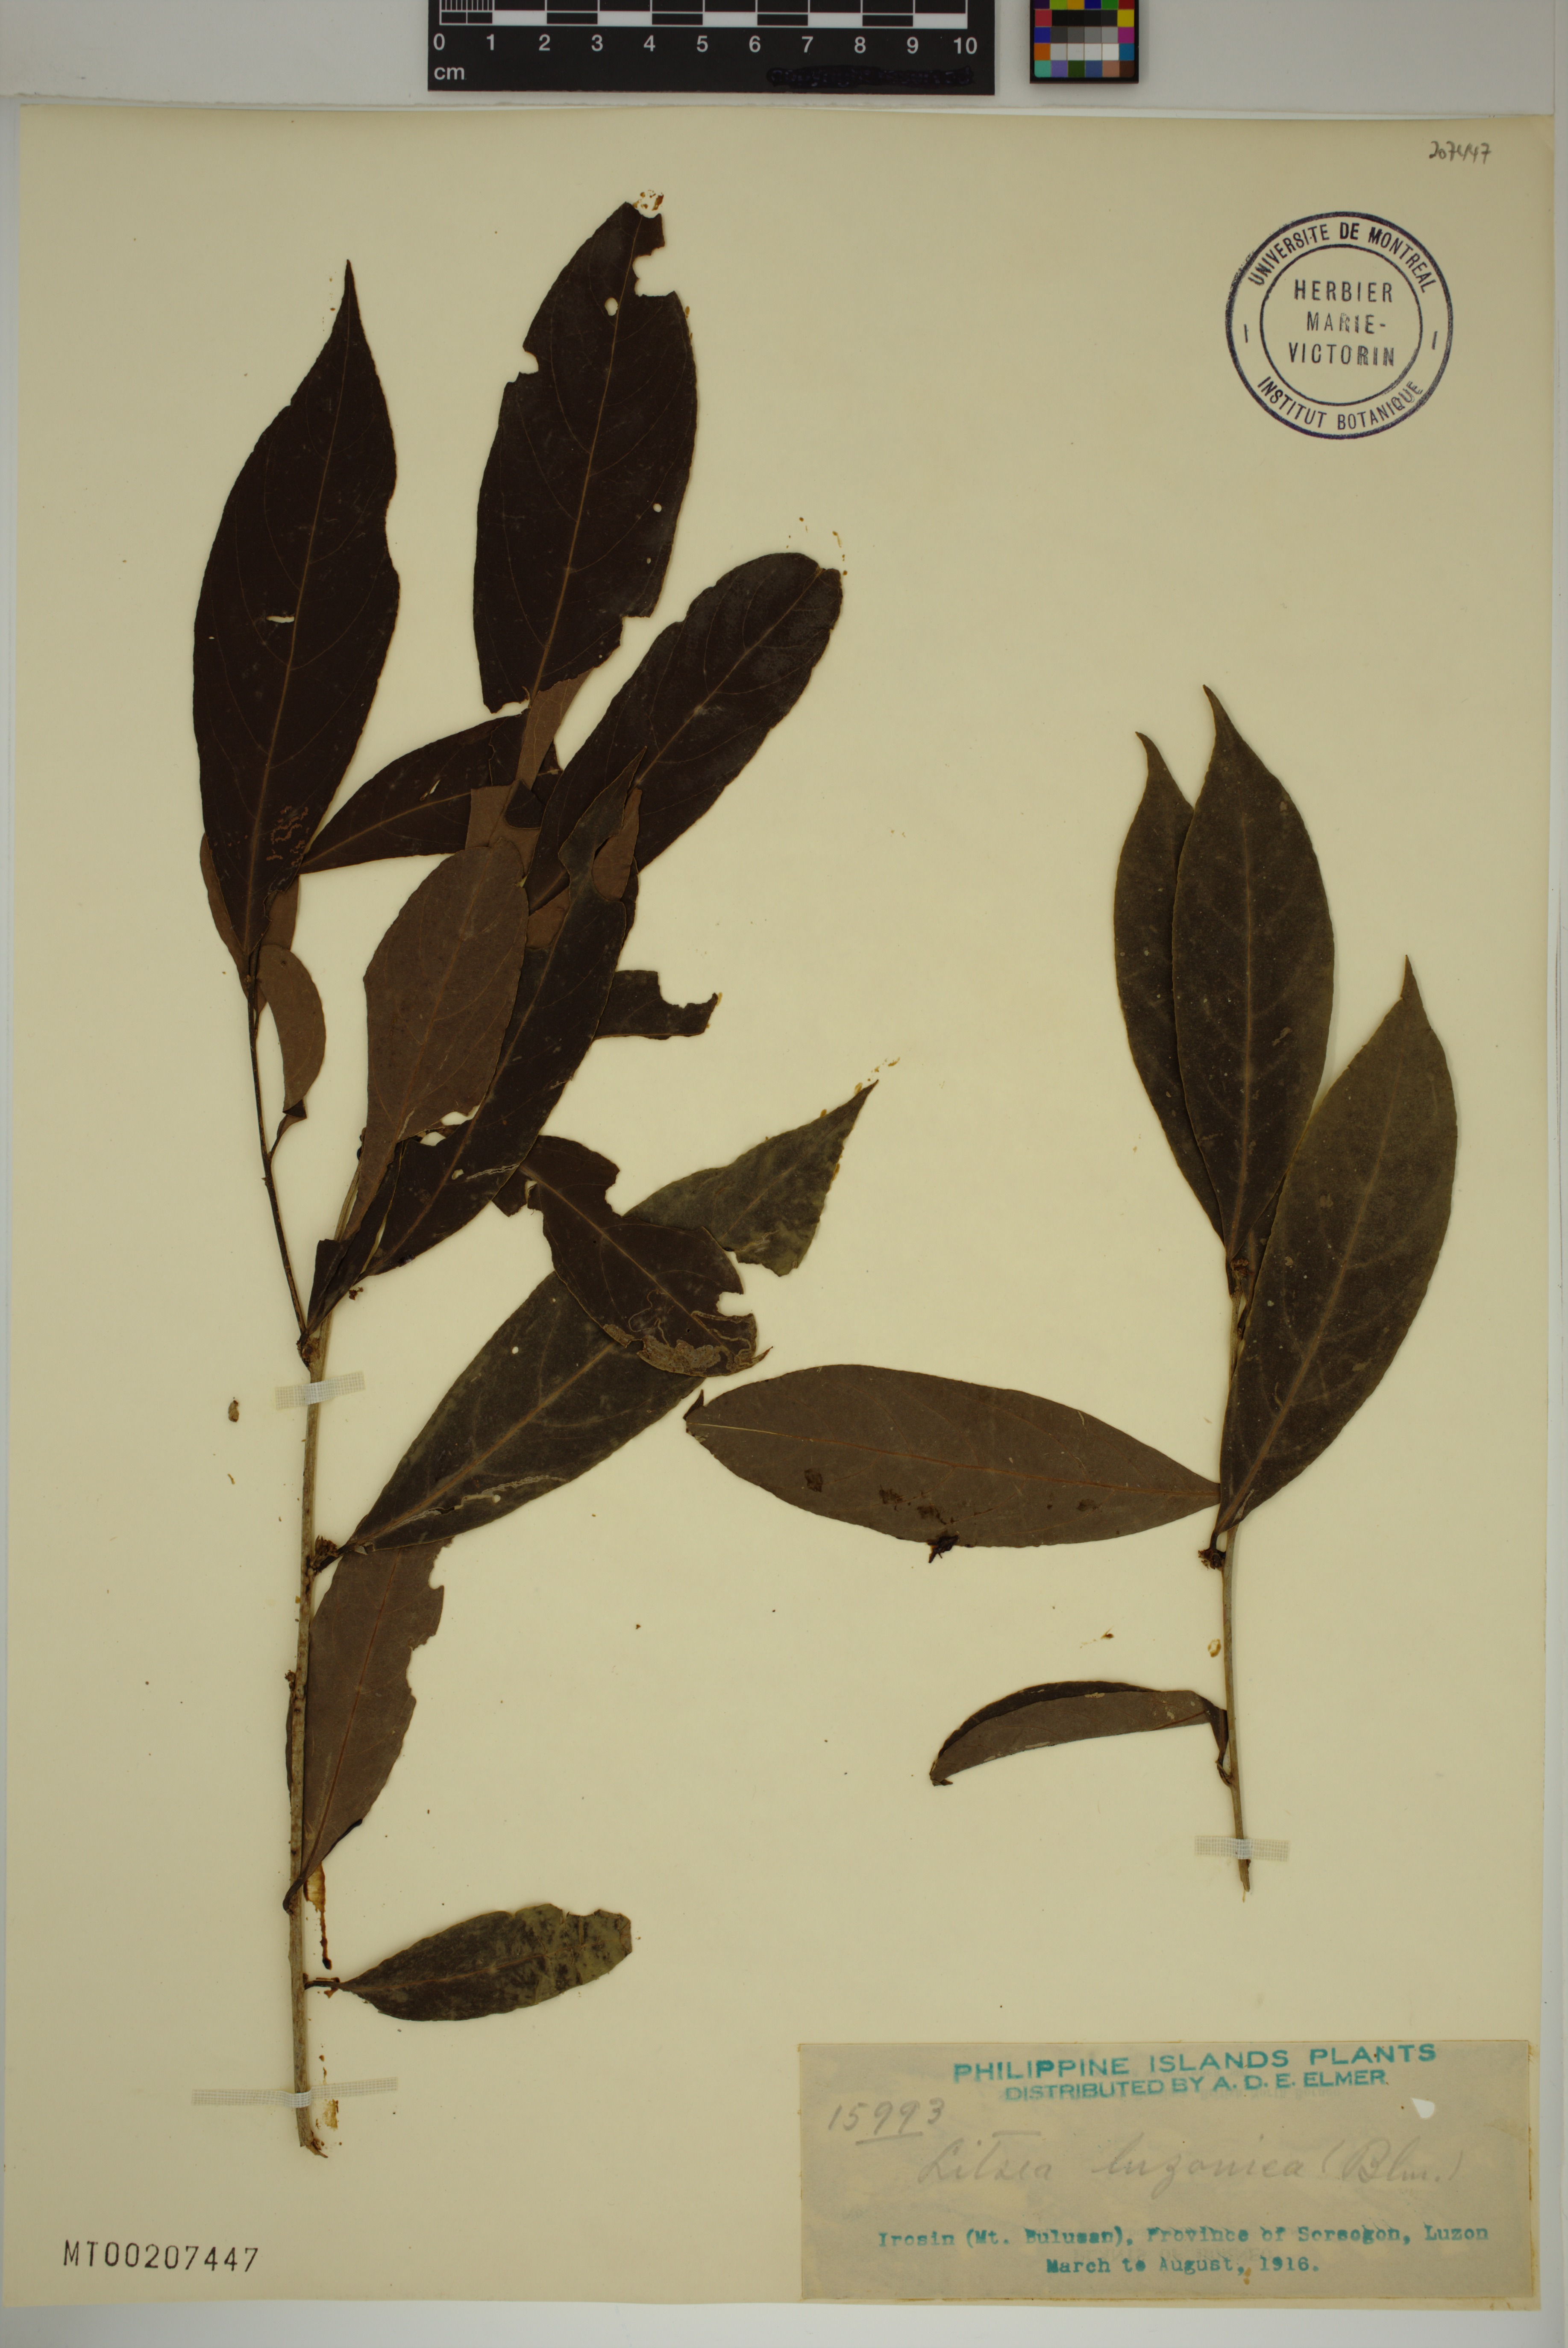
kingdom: Plantae
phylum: Tracheophyta
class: Magnoliopsida
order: Laurales
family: Lauraceae
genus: Litsea
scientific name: Litsea luzonica
